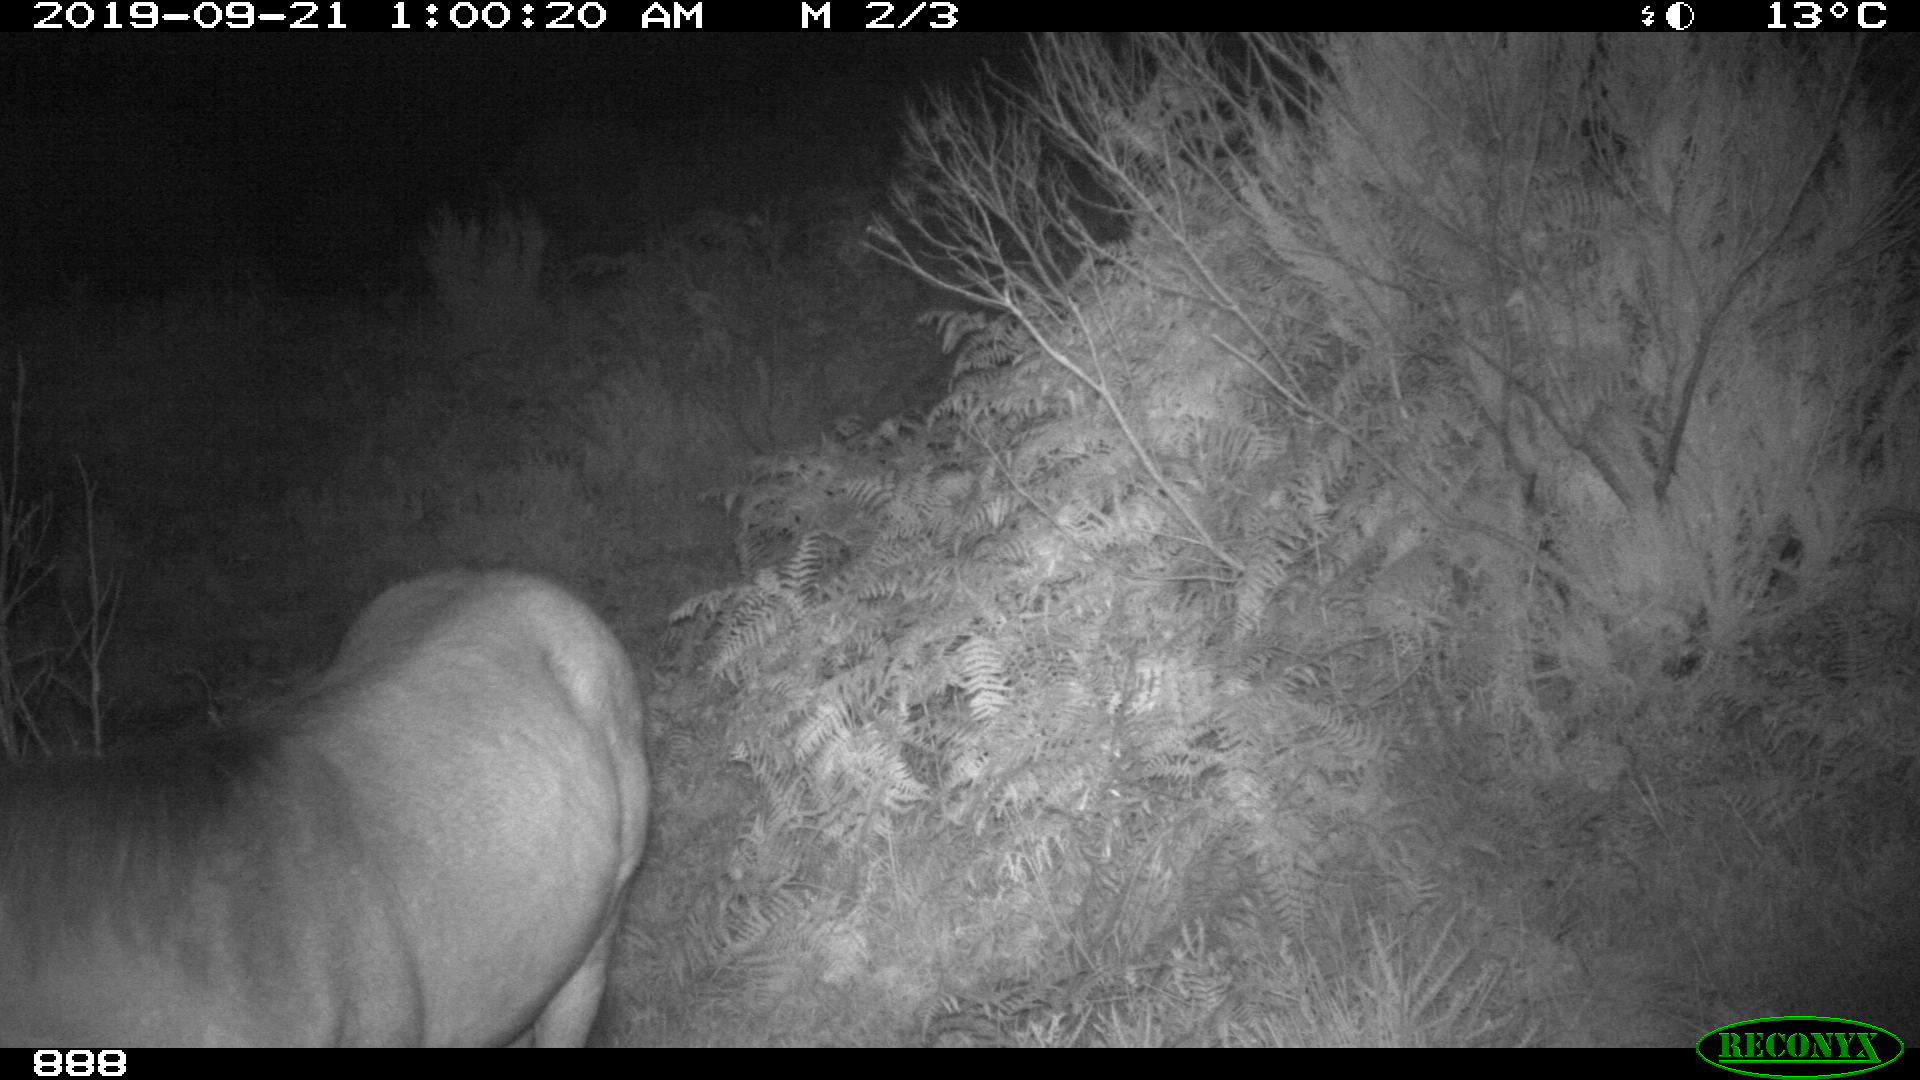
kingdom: Animalia
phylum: Chordata
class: Mammalia
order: Perissodactyla
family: Equidae
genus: Equus
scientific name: Equus caballus
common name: Horse
